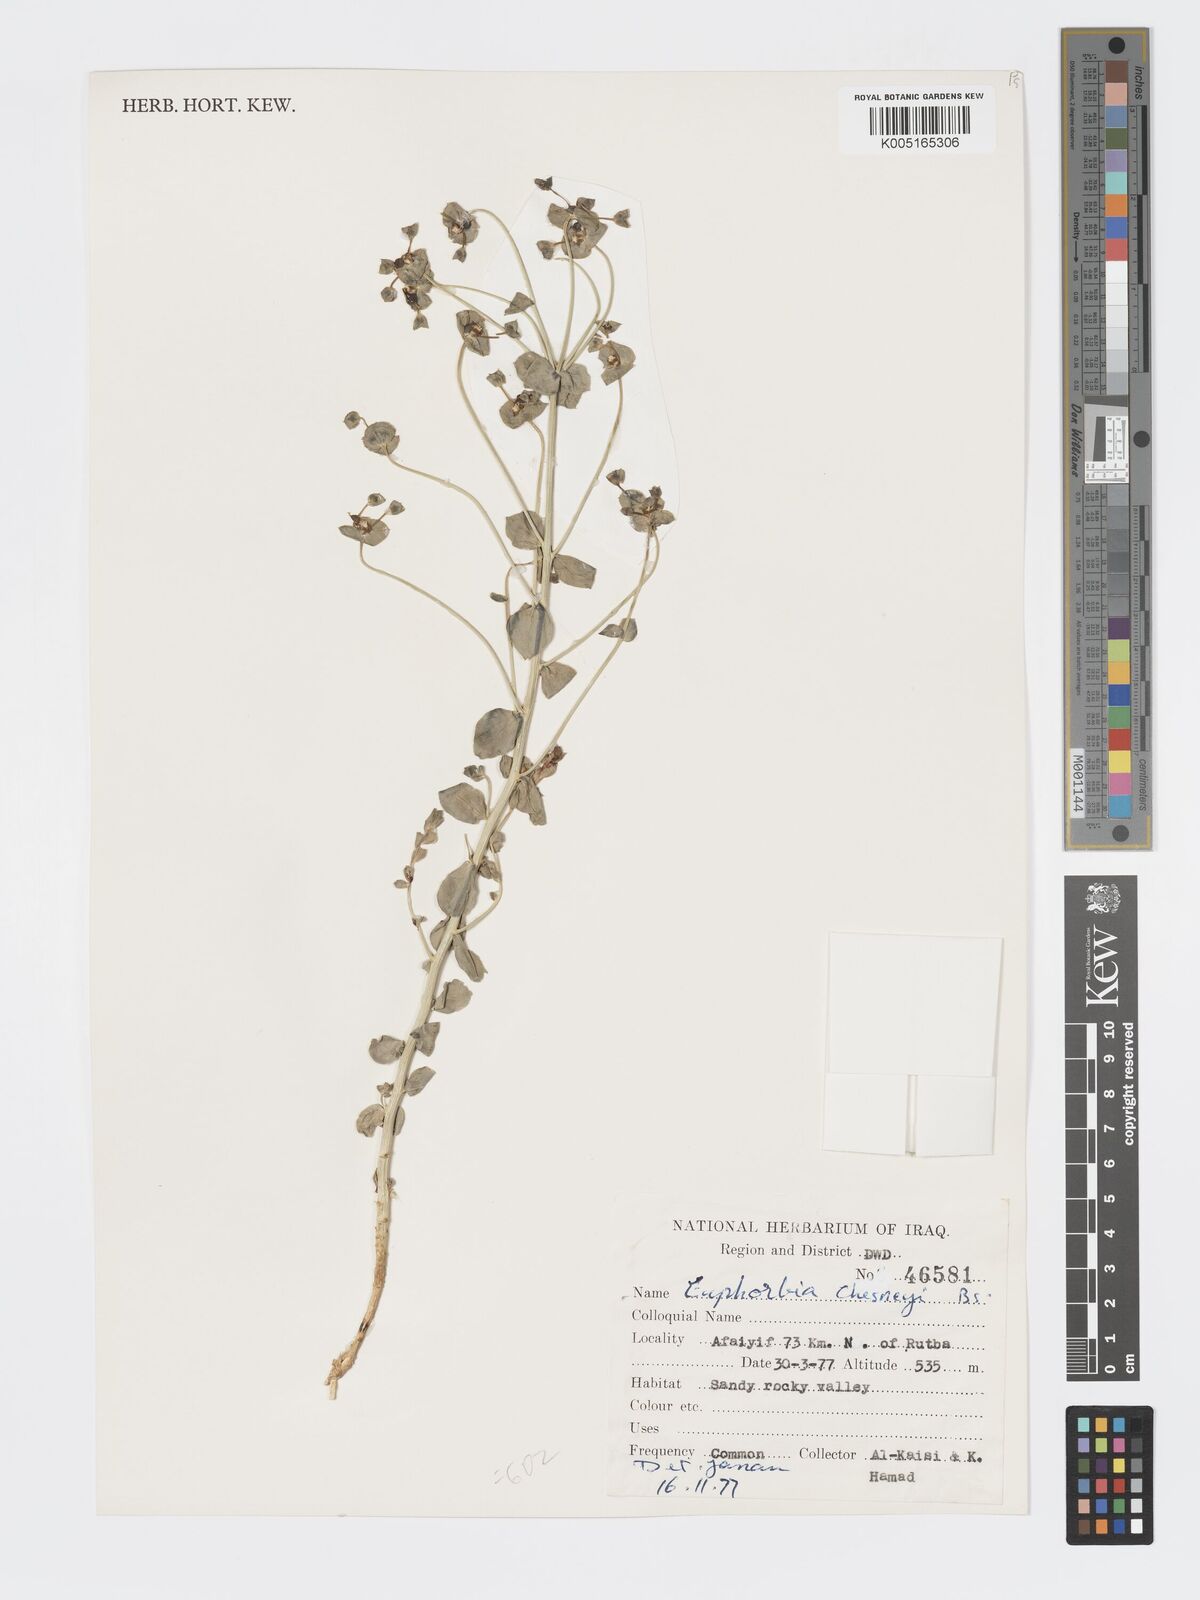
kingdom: Plantae
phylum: Tracheophyta
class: Magnoliopsida
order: Malpighiales
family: Euphorbiaceae
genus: Euphorbia
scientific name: Euphorbia cuspidata
